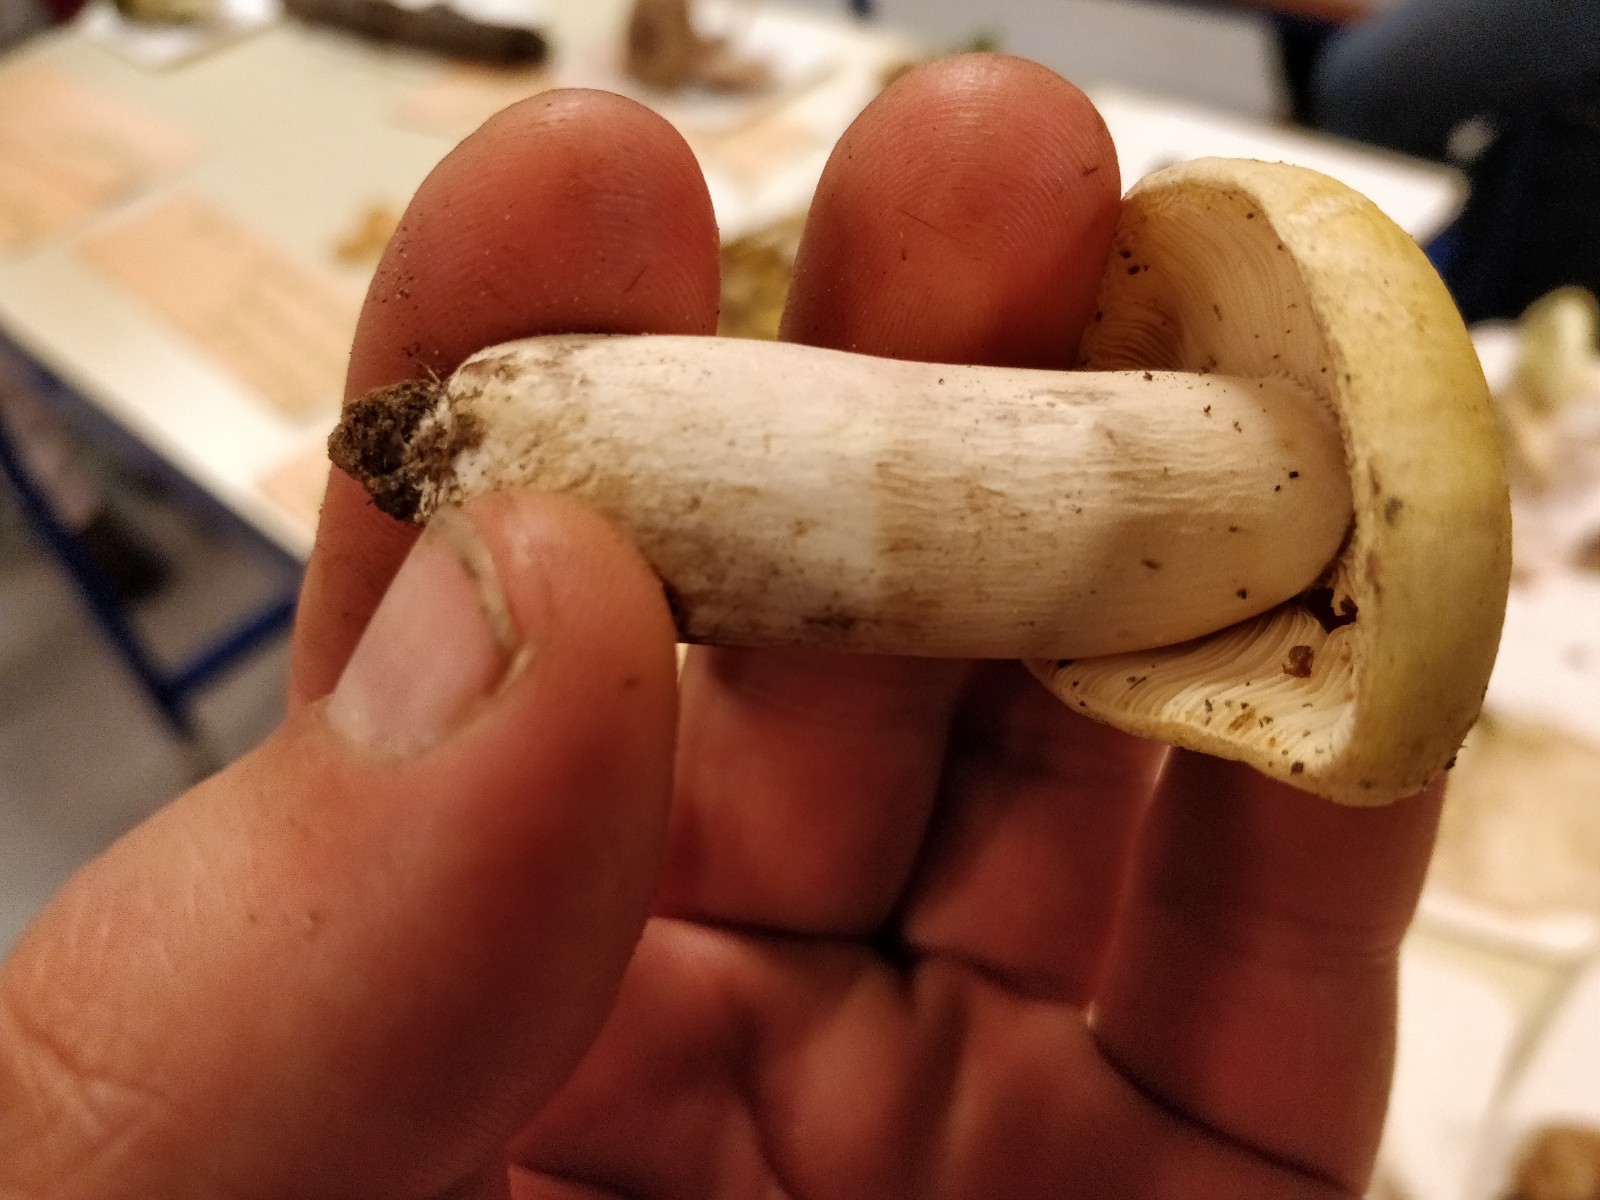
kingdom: Fungi
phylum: Basidiomycota
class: Agaricomycetes
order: Russulales
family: Russulaceae
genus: Russula
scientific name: Russula violeipes
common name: ferskengul skørhat
